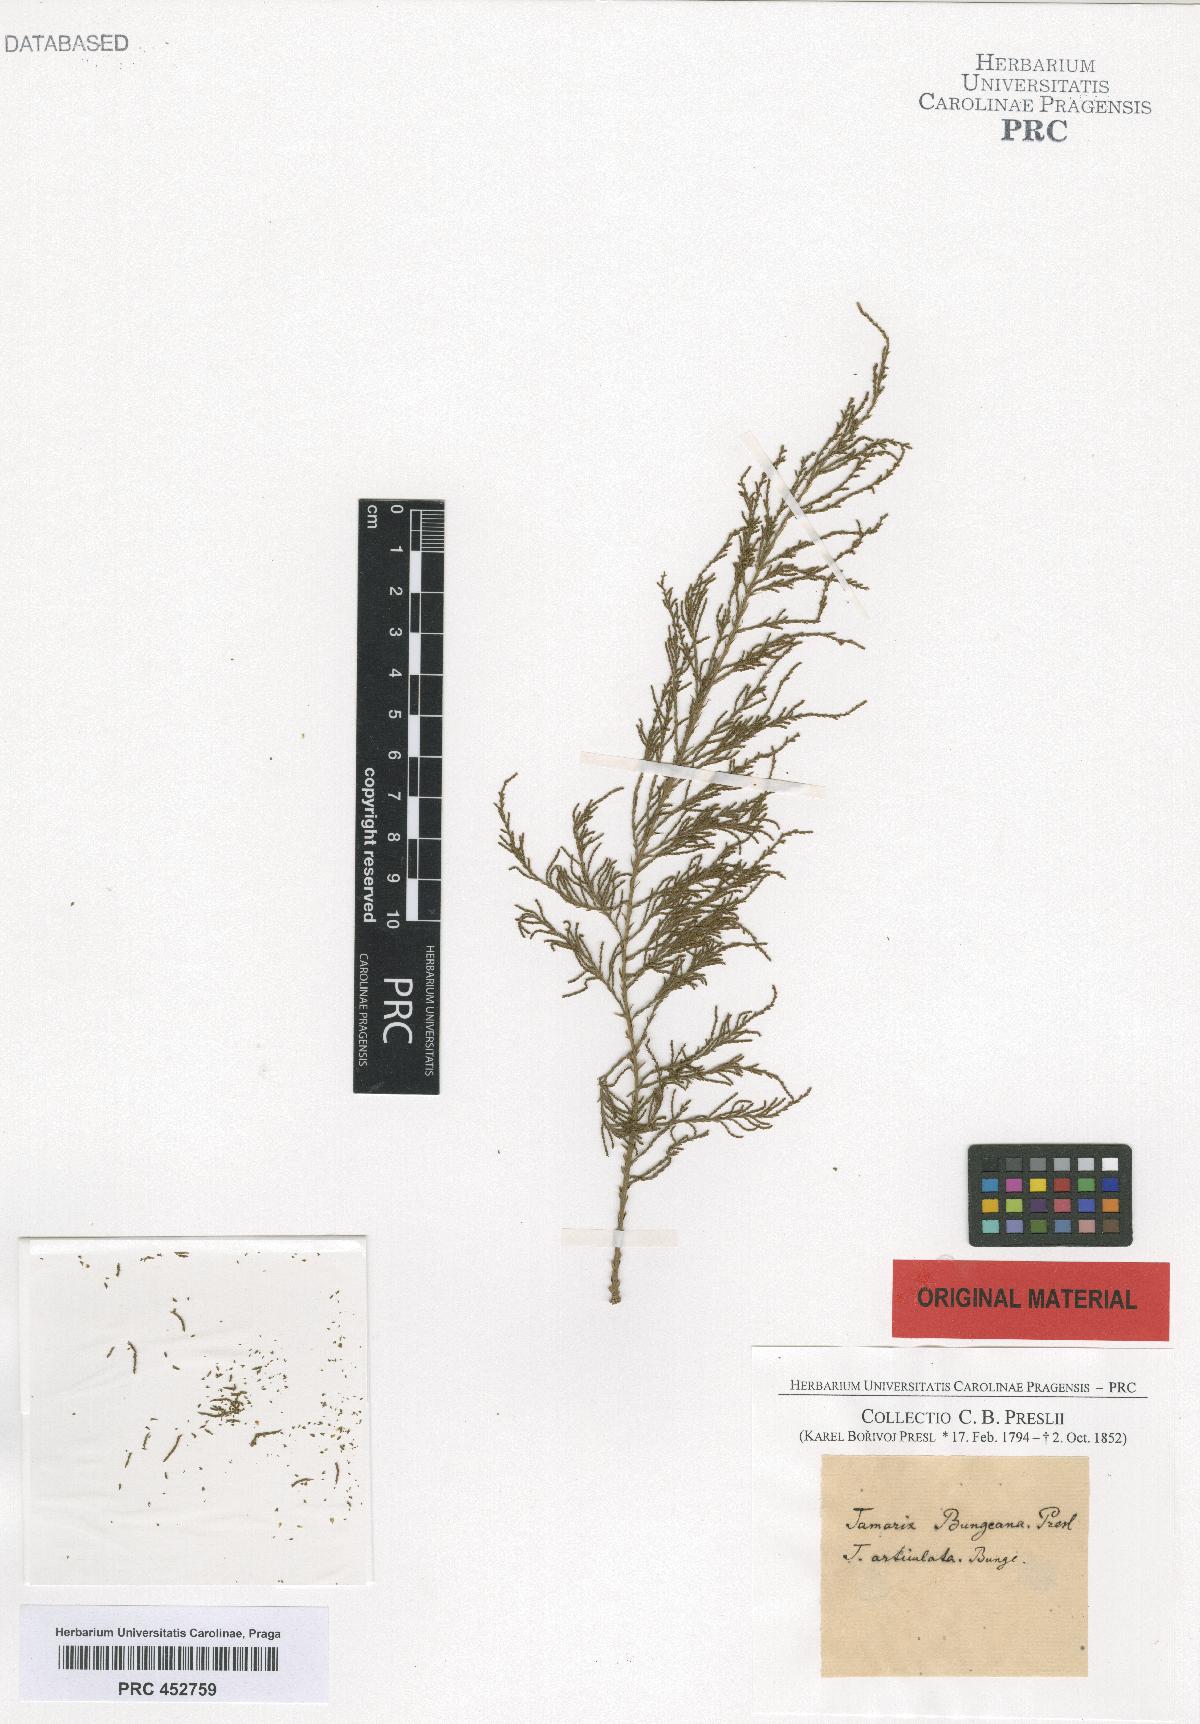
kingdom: Plantae
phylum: Tracheophyta
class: Magnoliopsida
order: Caryophyllales
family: Tamaricaceae
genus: Tamarix
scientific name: Tamarix
